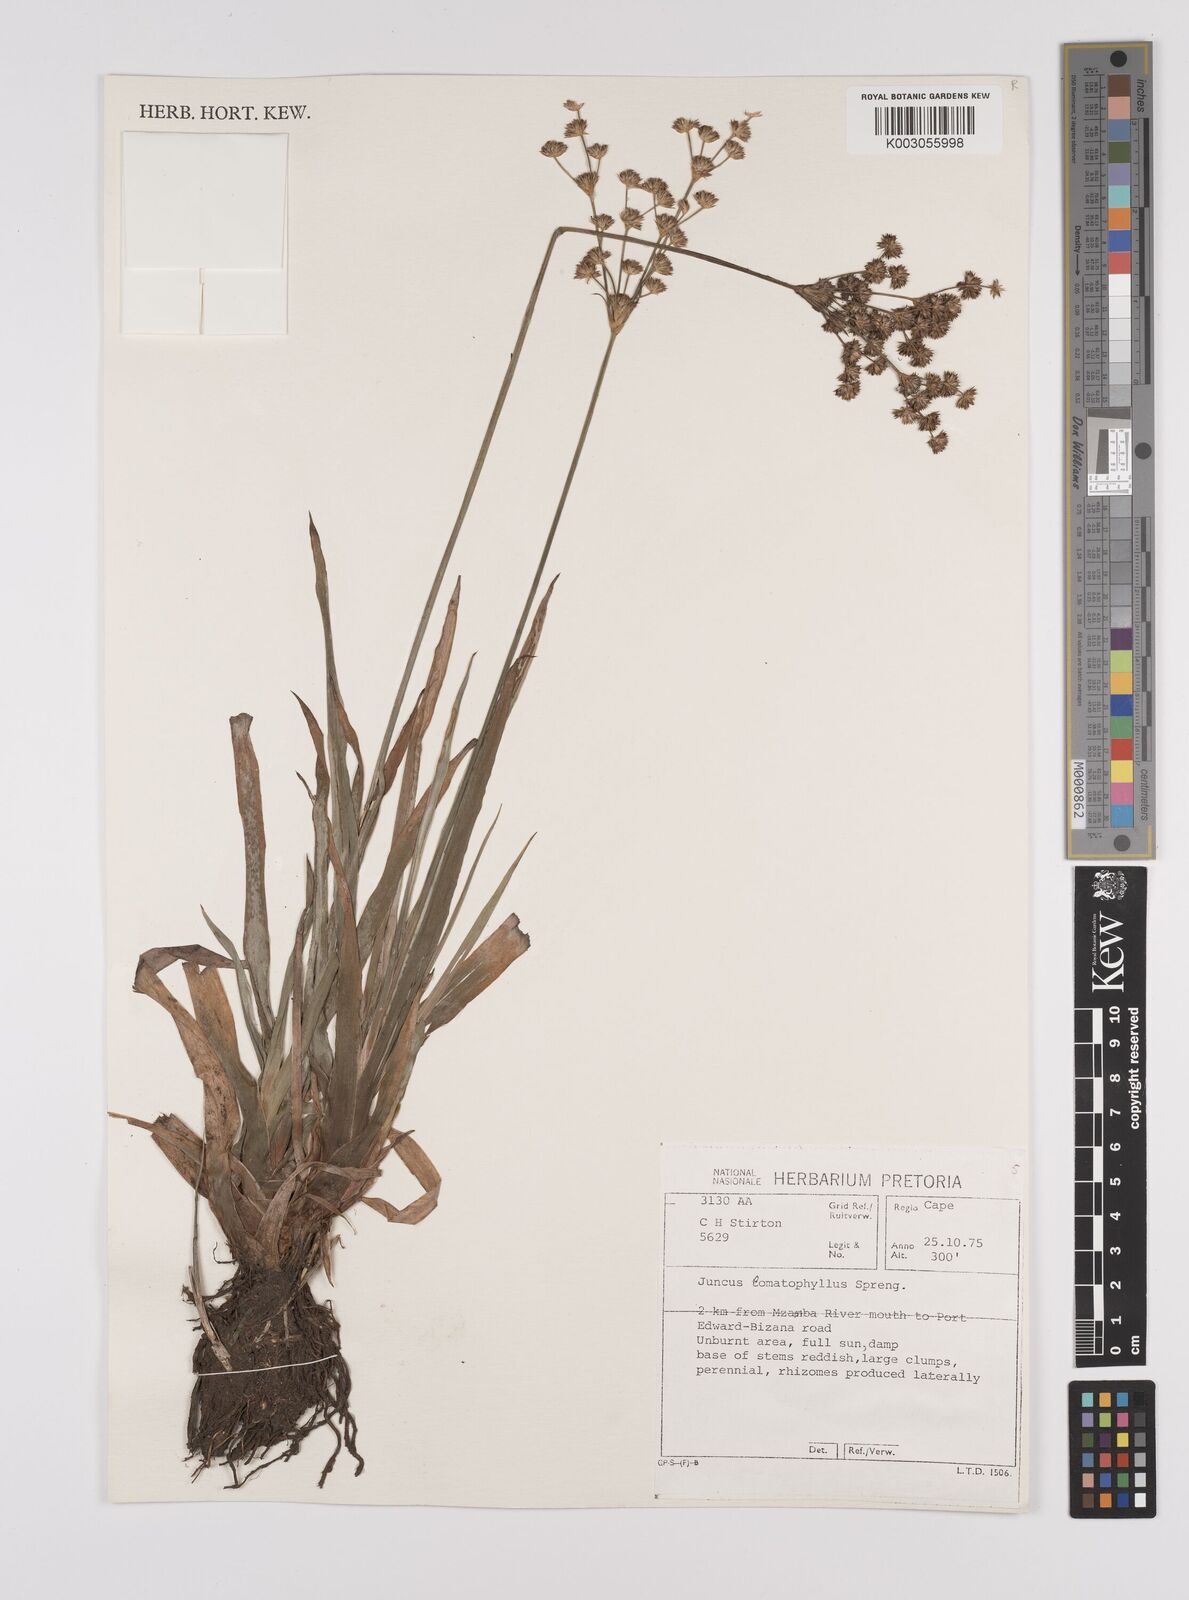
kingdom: Plantae
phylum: Tracheophyta
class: Liliopsida
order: Poales
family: Juncaceae
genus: Juncus
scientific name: Juncus lomatophyllus
